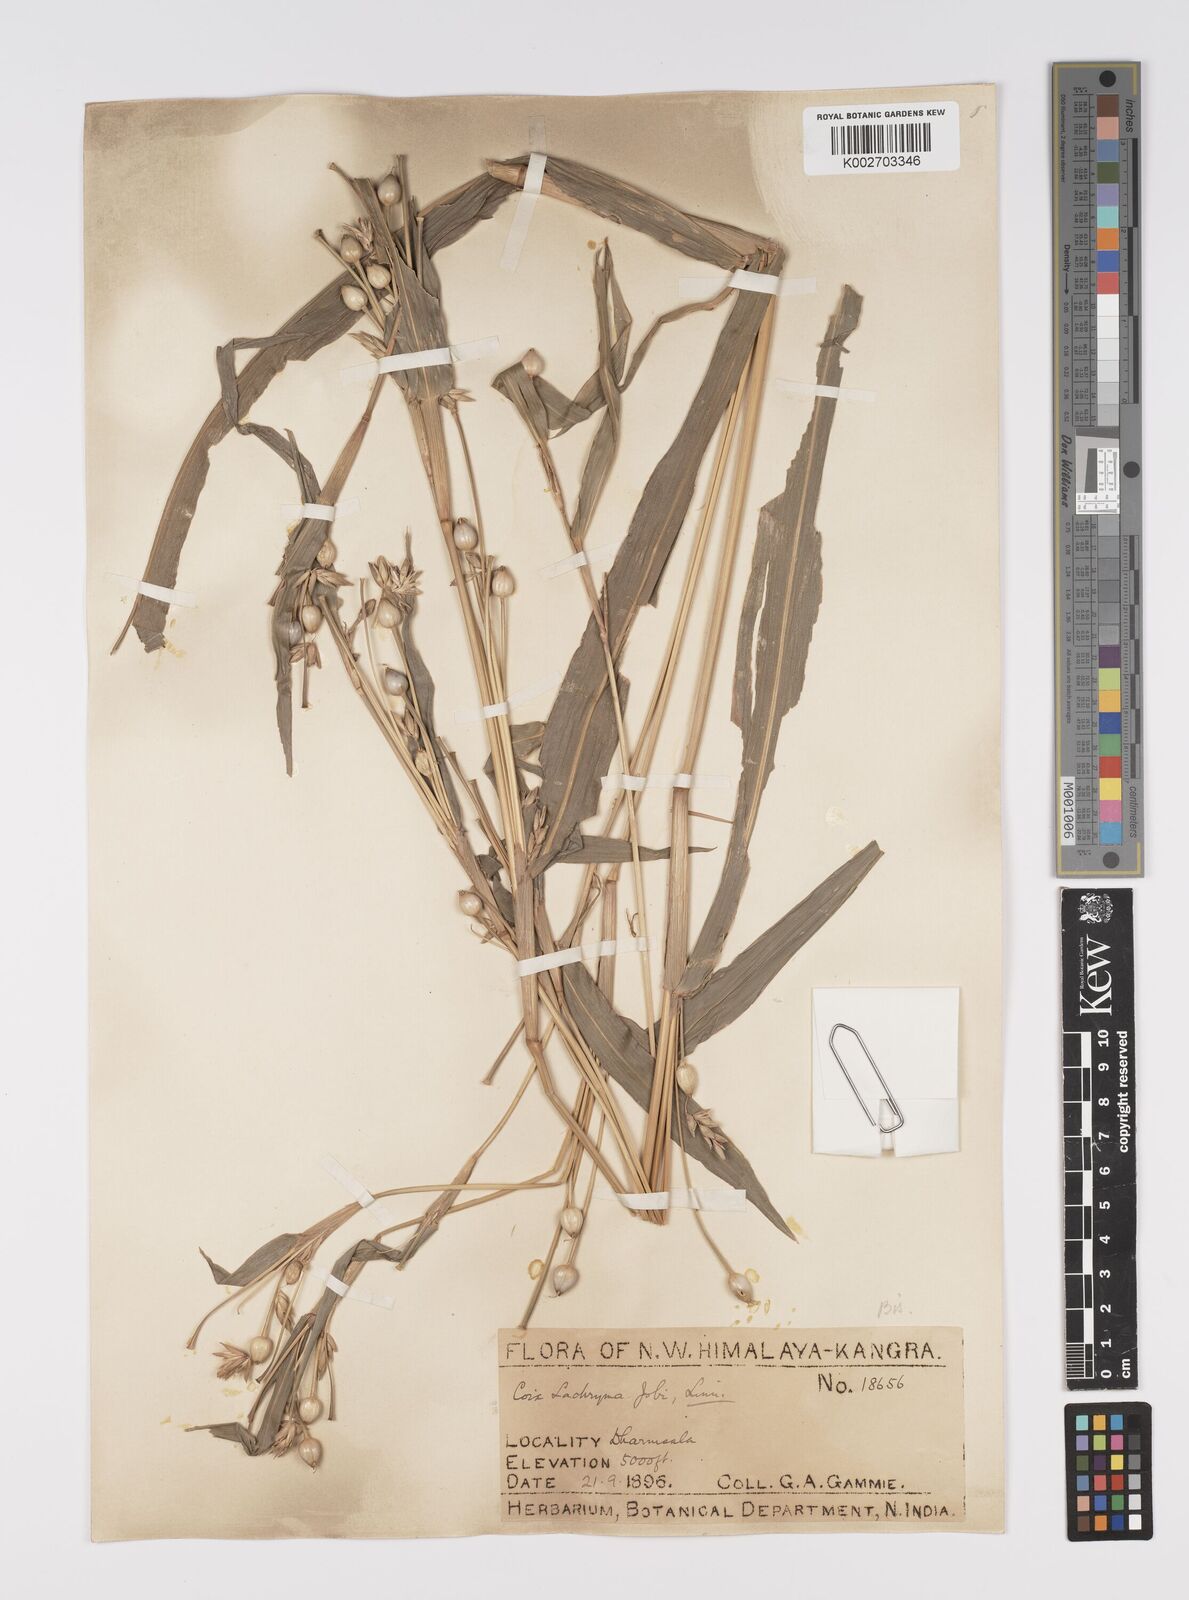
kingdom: Plantae
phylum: Tracheophyta
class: Liliopsida
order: Poales
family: Poaceae
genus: Coix
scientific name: Coix lacryma-jobi
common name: Job's tears
